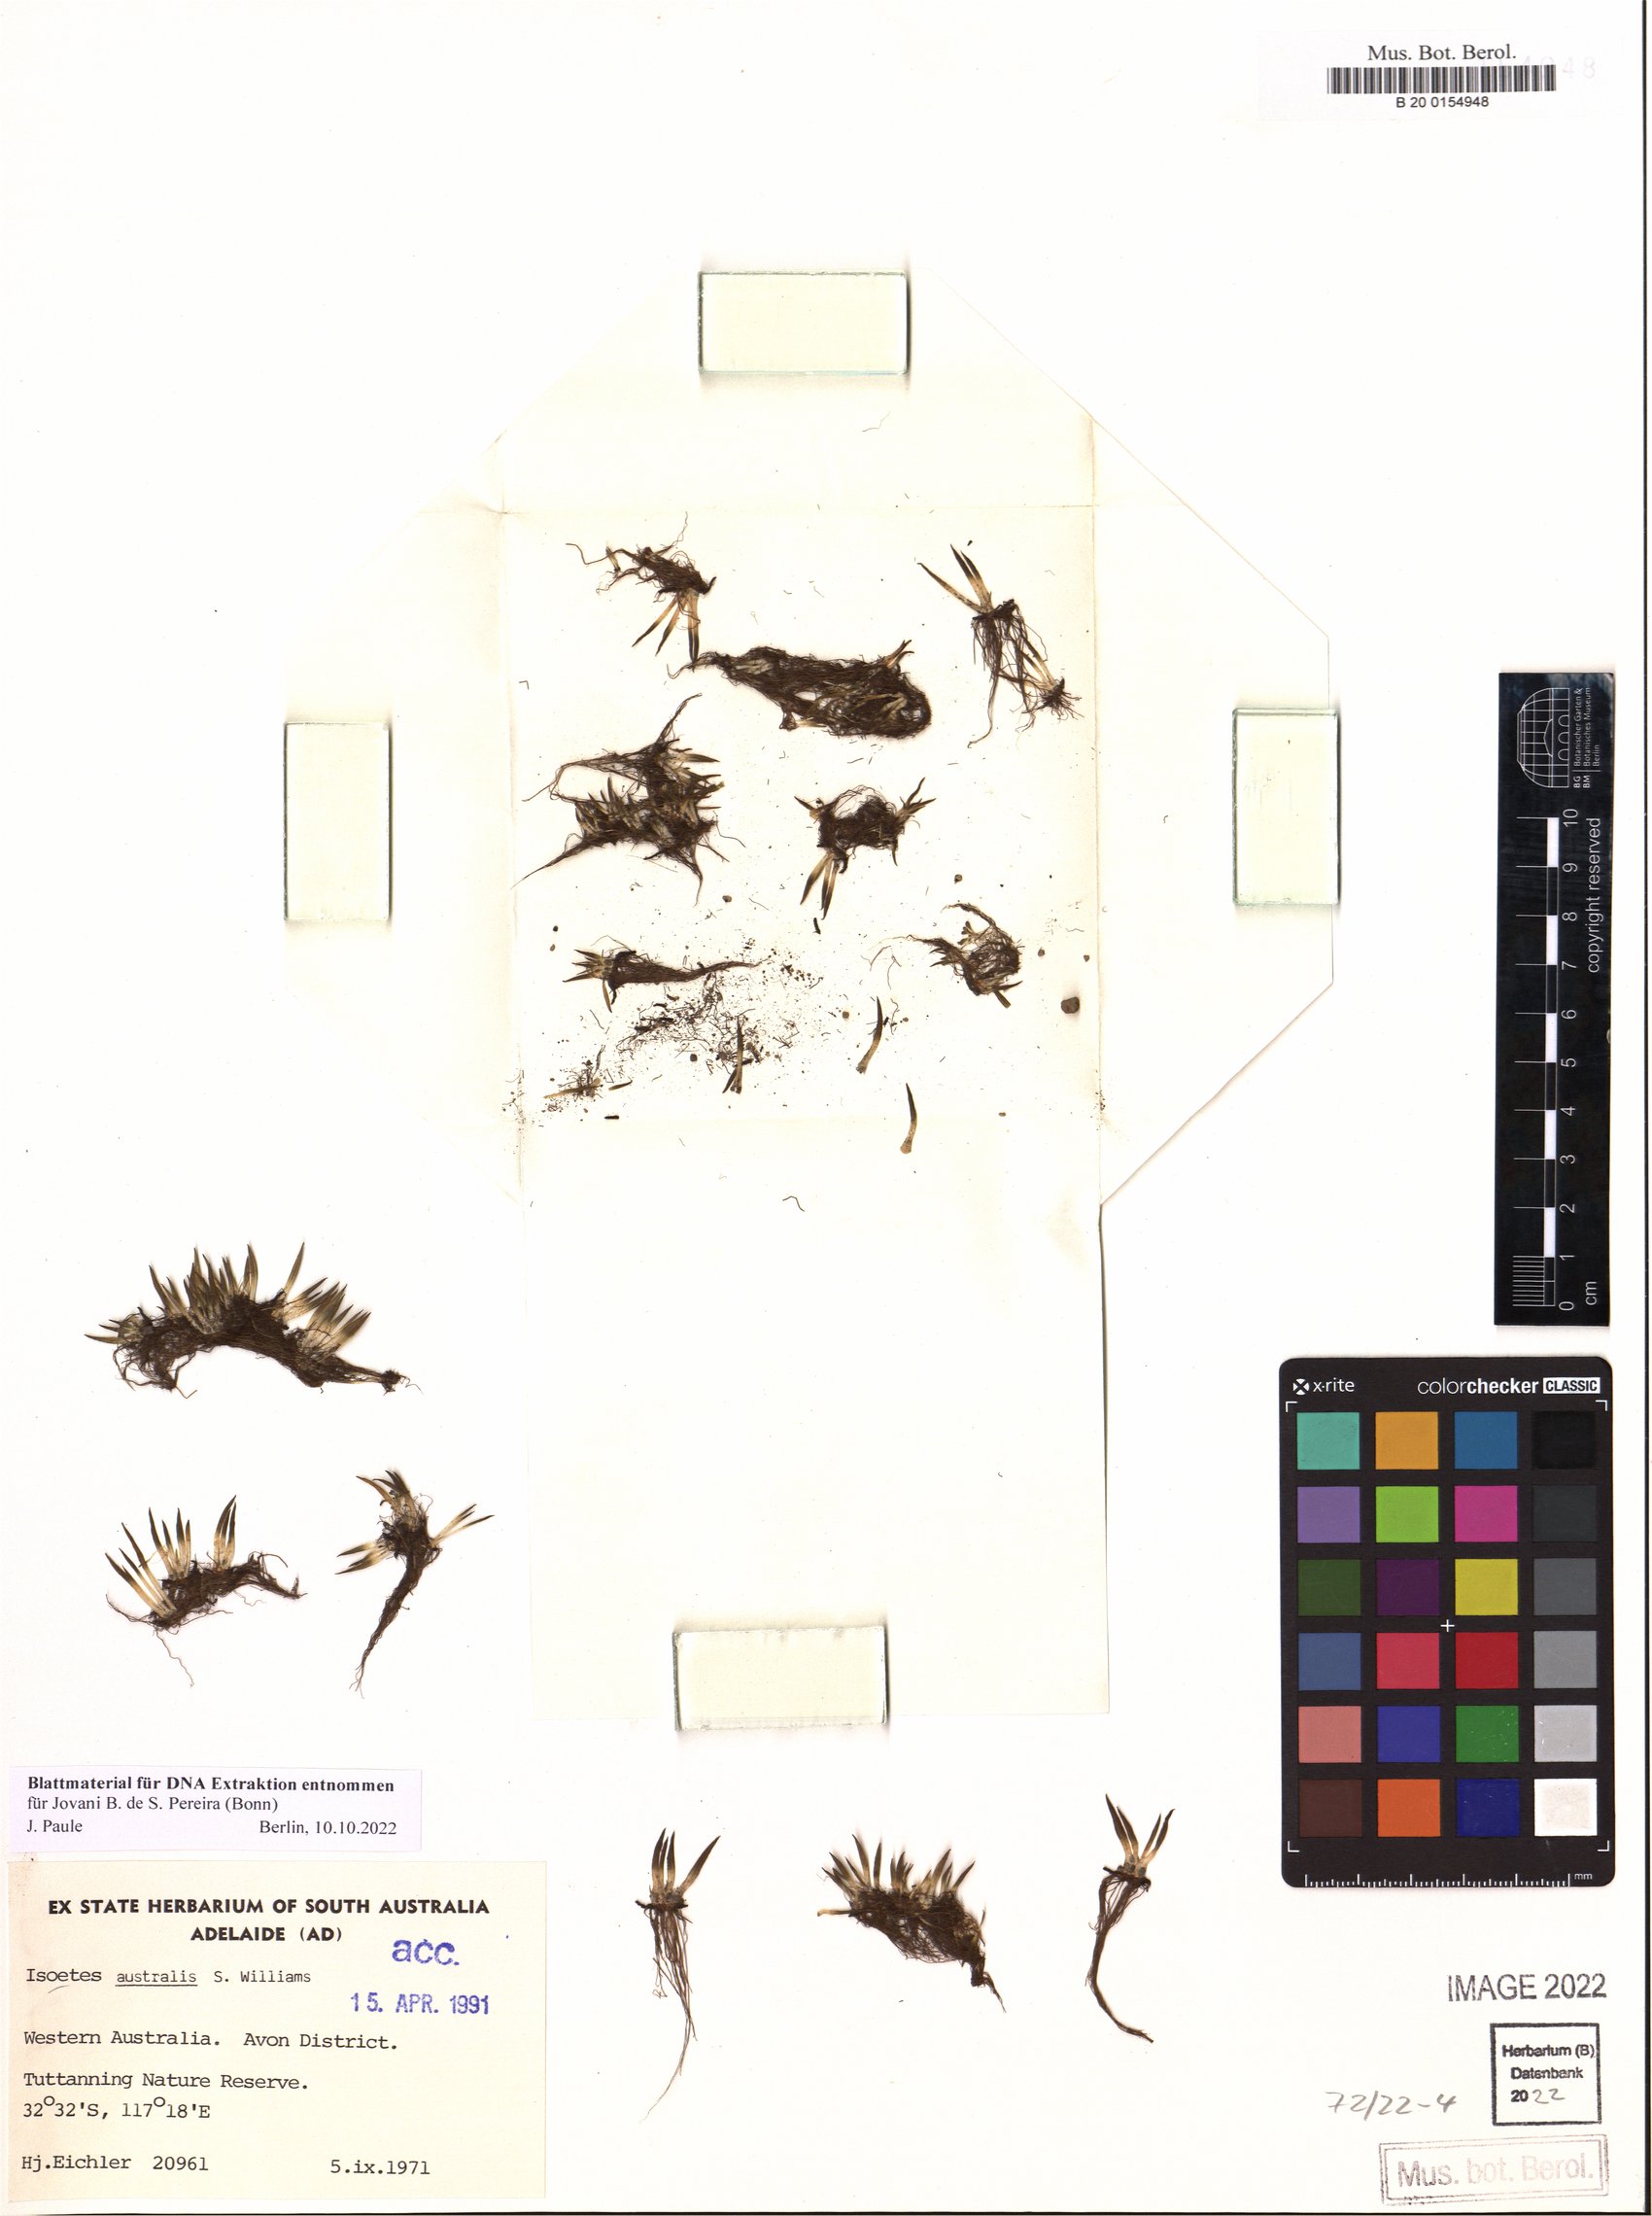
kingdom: Plantae
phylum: Tracheophyta
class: Lycopodiopsida
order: Isoetales
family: Isoetaceae
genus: Isoetes
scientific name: Isoetes australis
